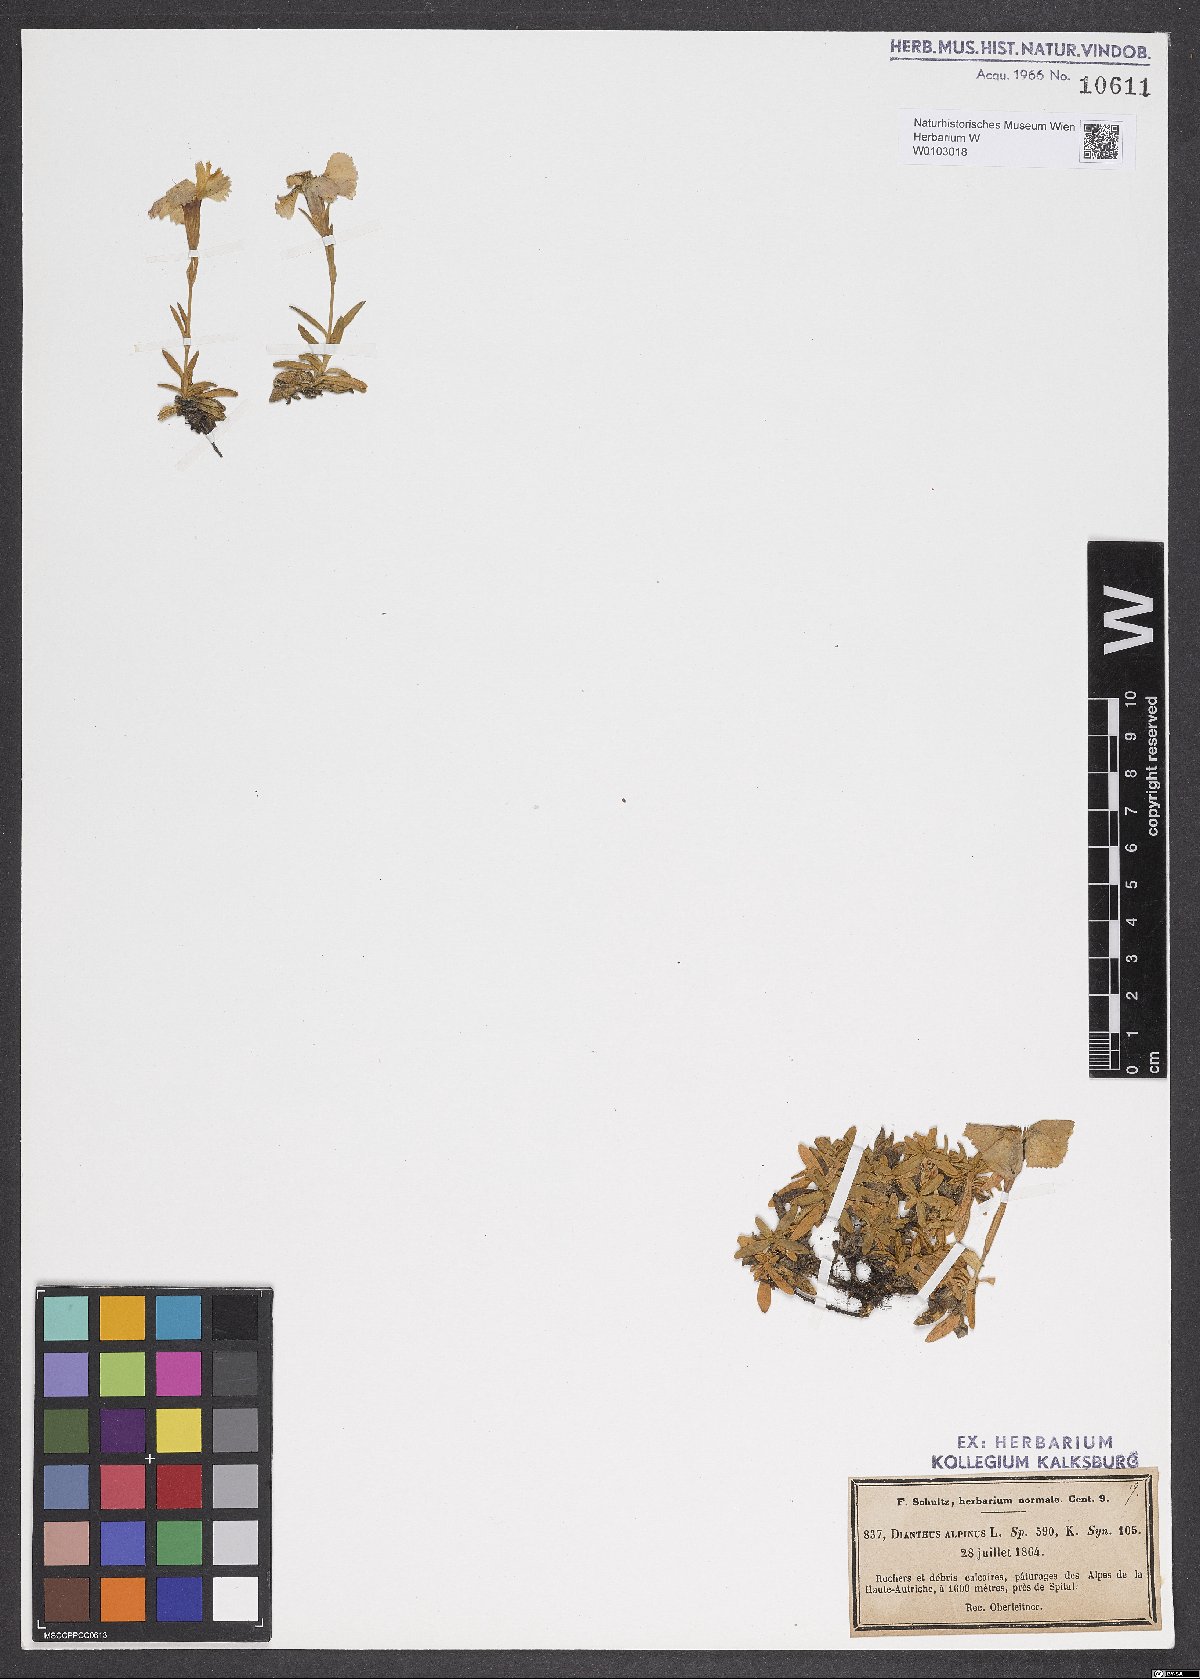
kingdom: Plantae
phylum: Tracheophyta
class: Magnoliopsida
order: Caryophyllales
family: Caryophyllaceae
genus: Dianthus
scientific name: Dianthus alpinus
